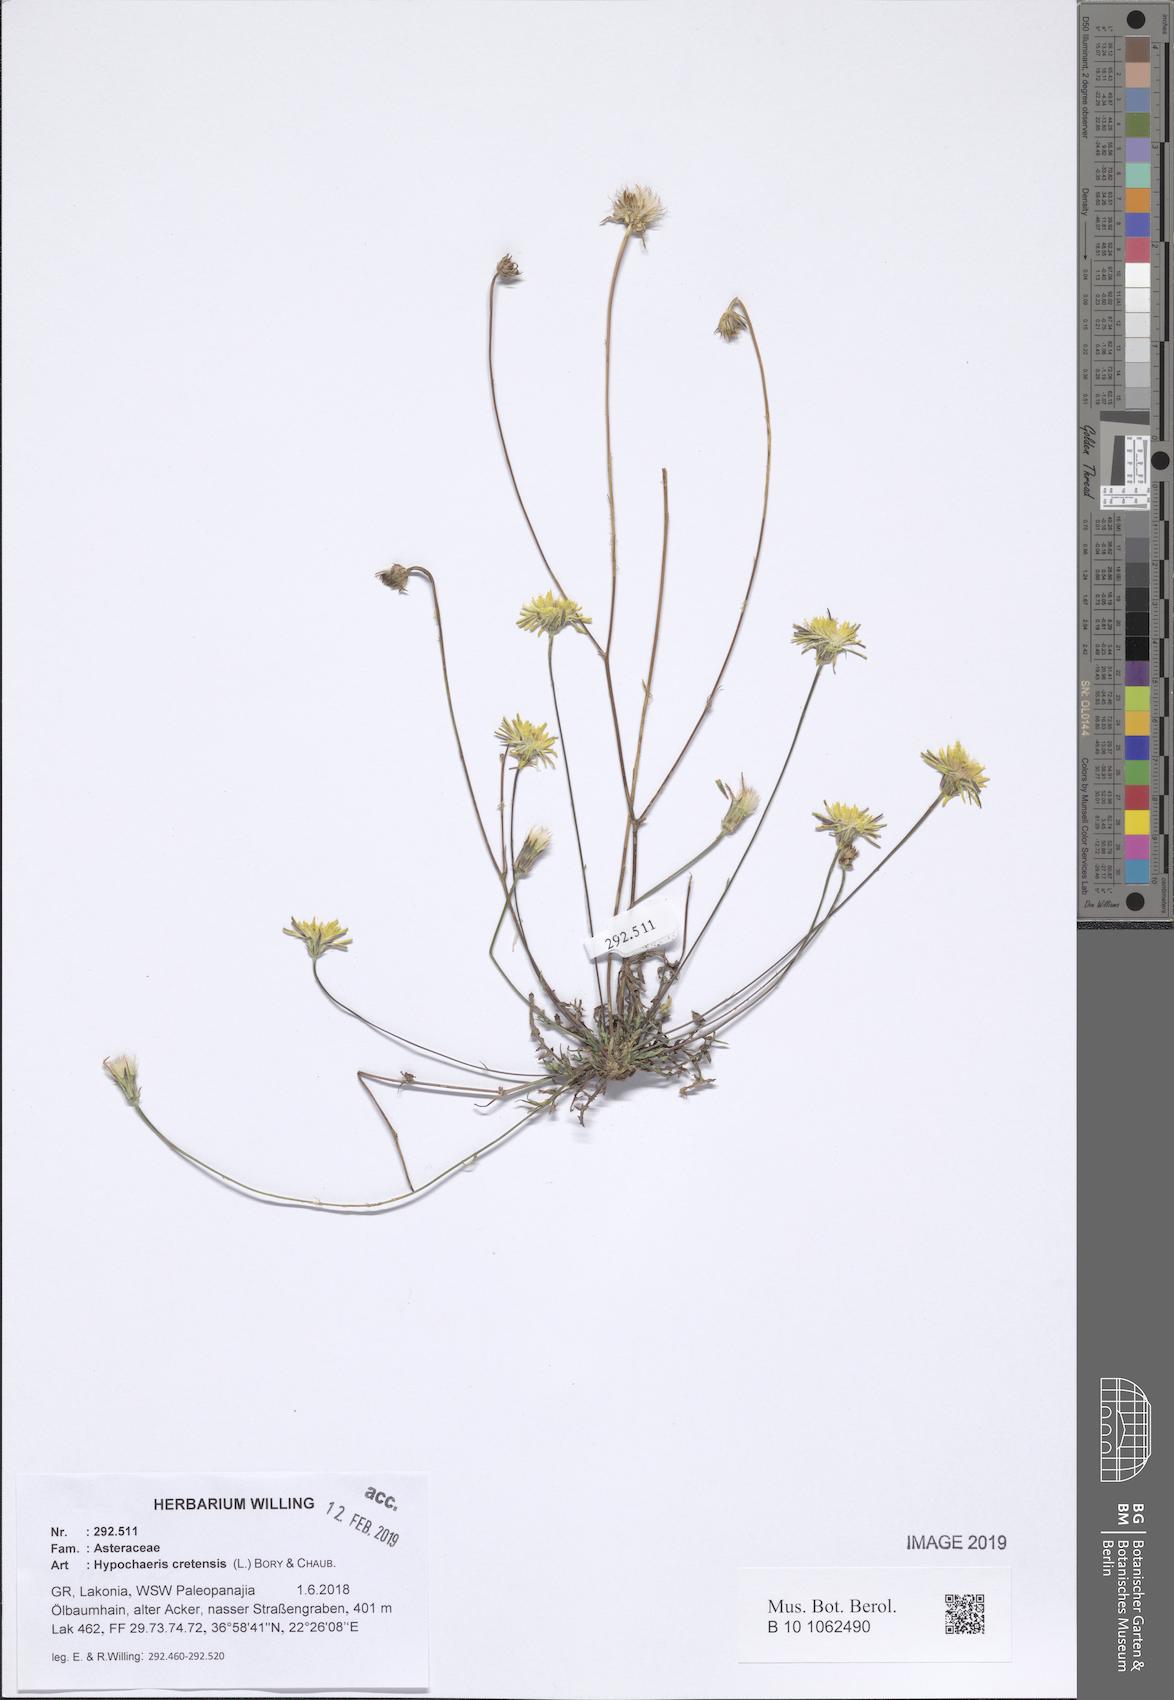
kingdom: Plantae
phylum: Tracheophyta
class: Magnoliopsida
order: Asterales
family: Asteraceae
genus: Hypochaeris
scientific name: Hypochaeris cretensis
